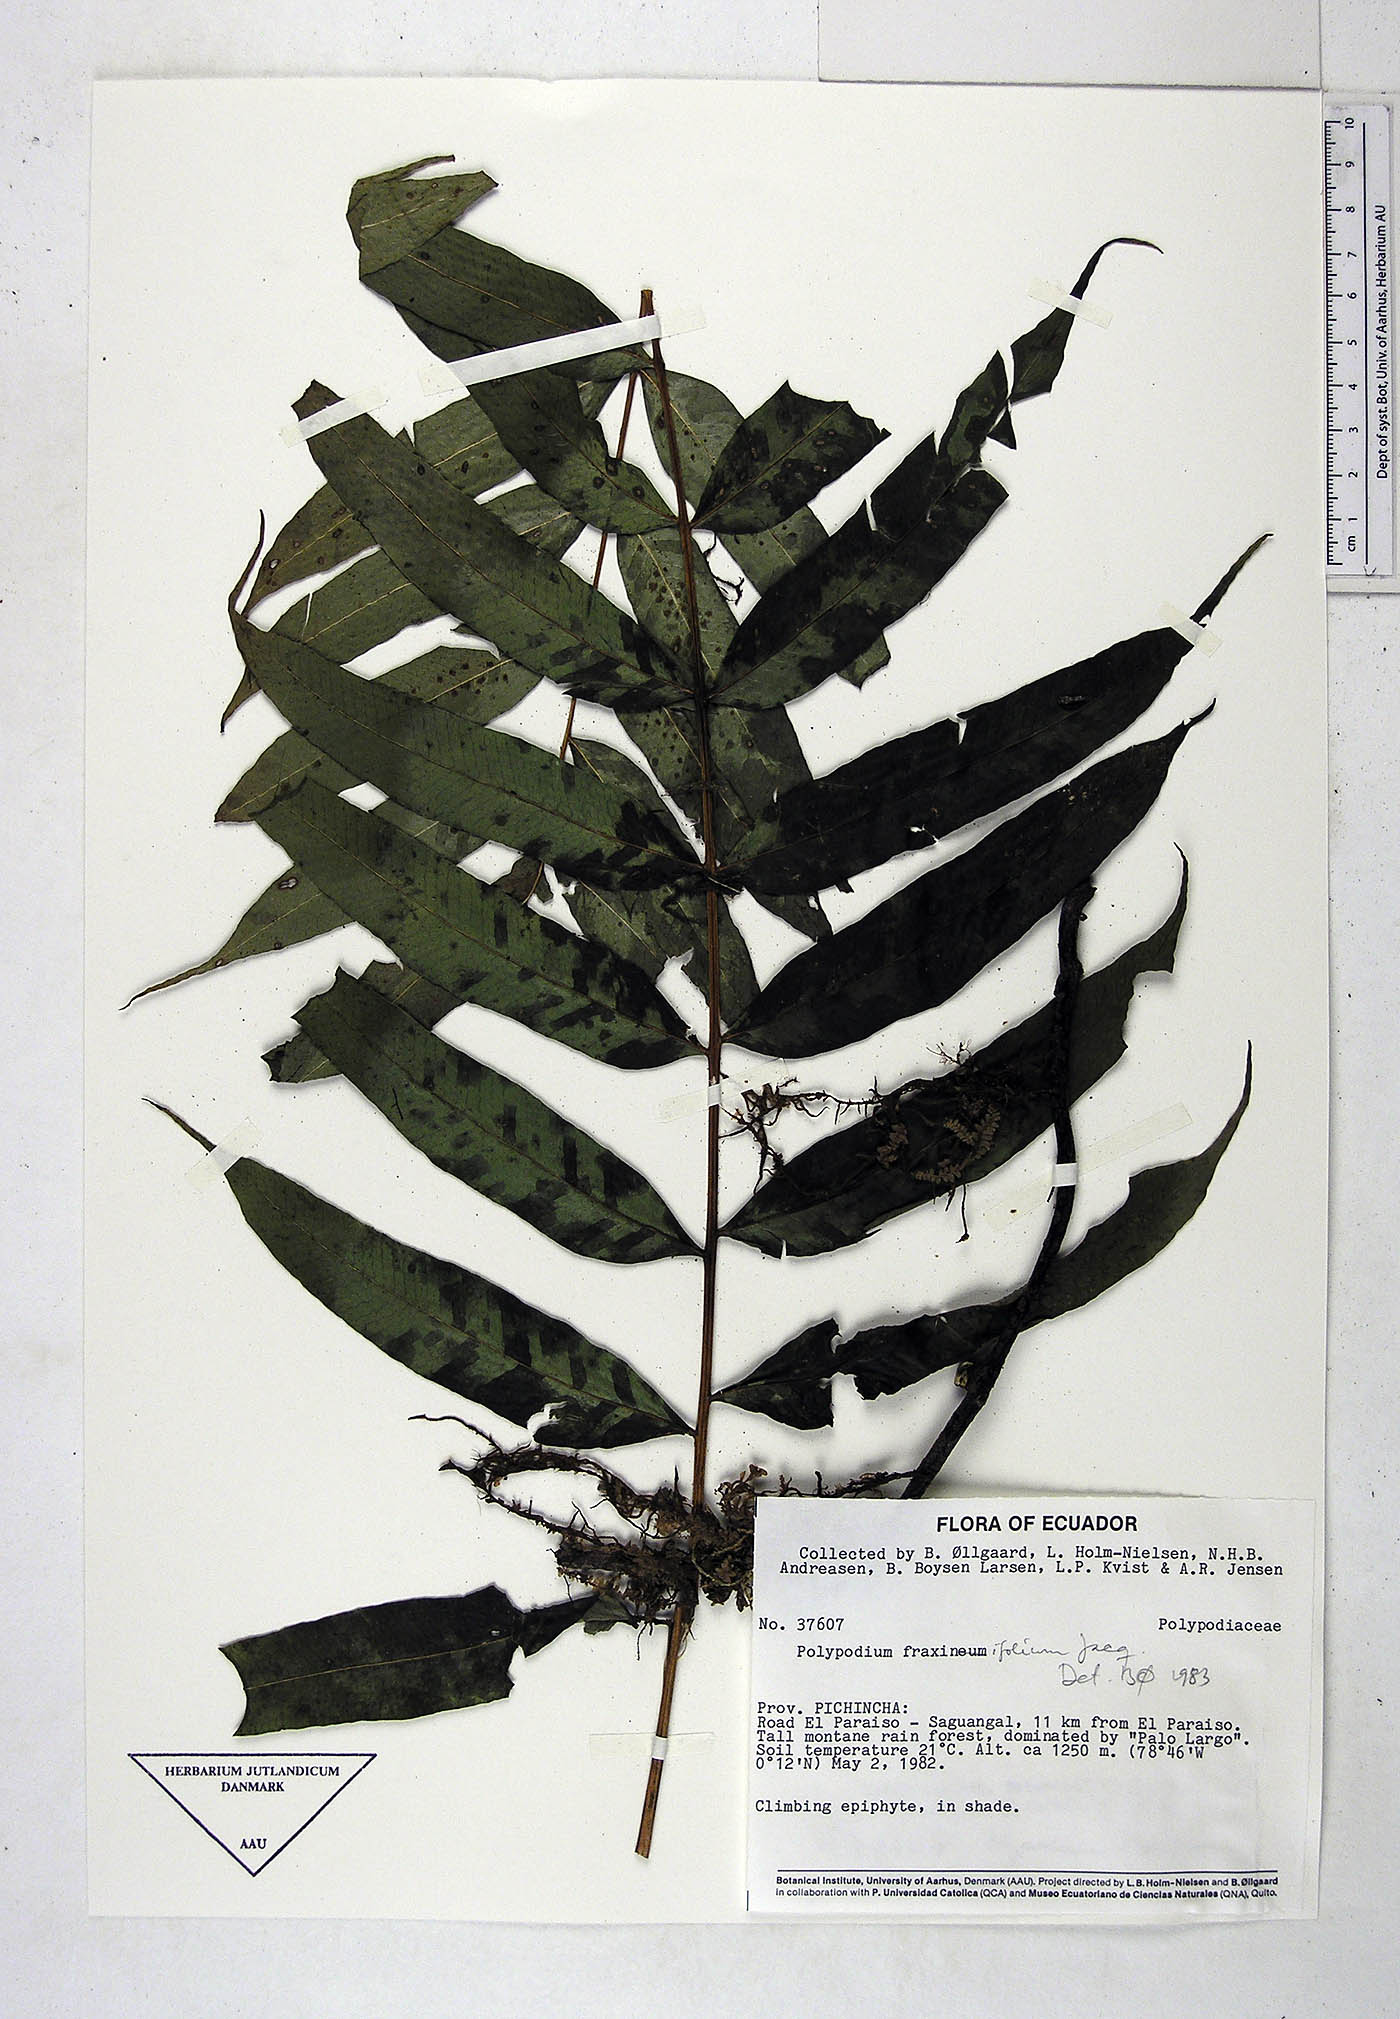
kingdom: Plantae
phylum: Tracheophyta
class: Polypodiopsida
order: Polypodiales
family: Polypodiaceae
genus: Serpocaulon
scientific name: Serpocaulon fraxinifolium
